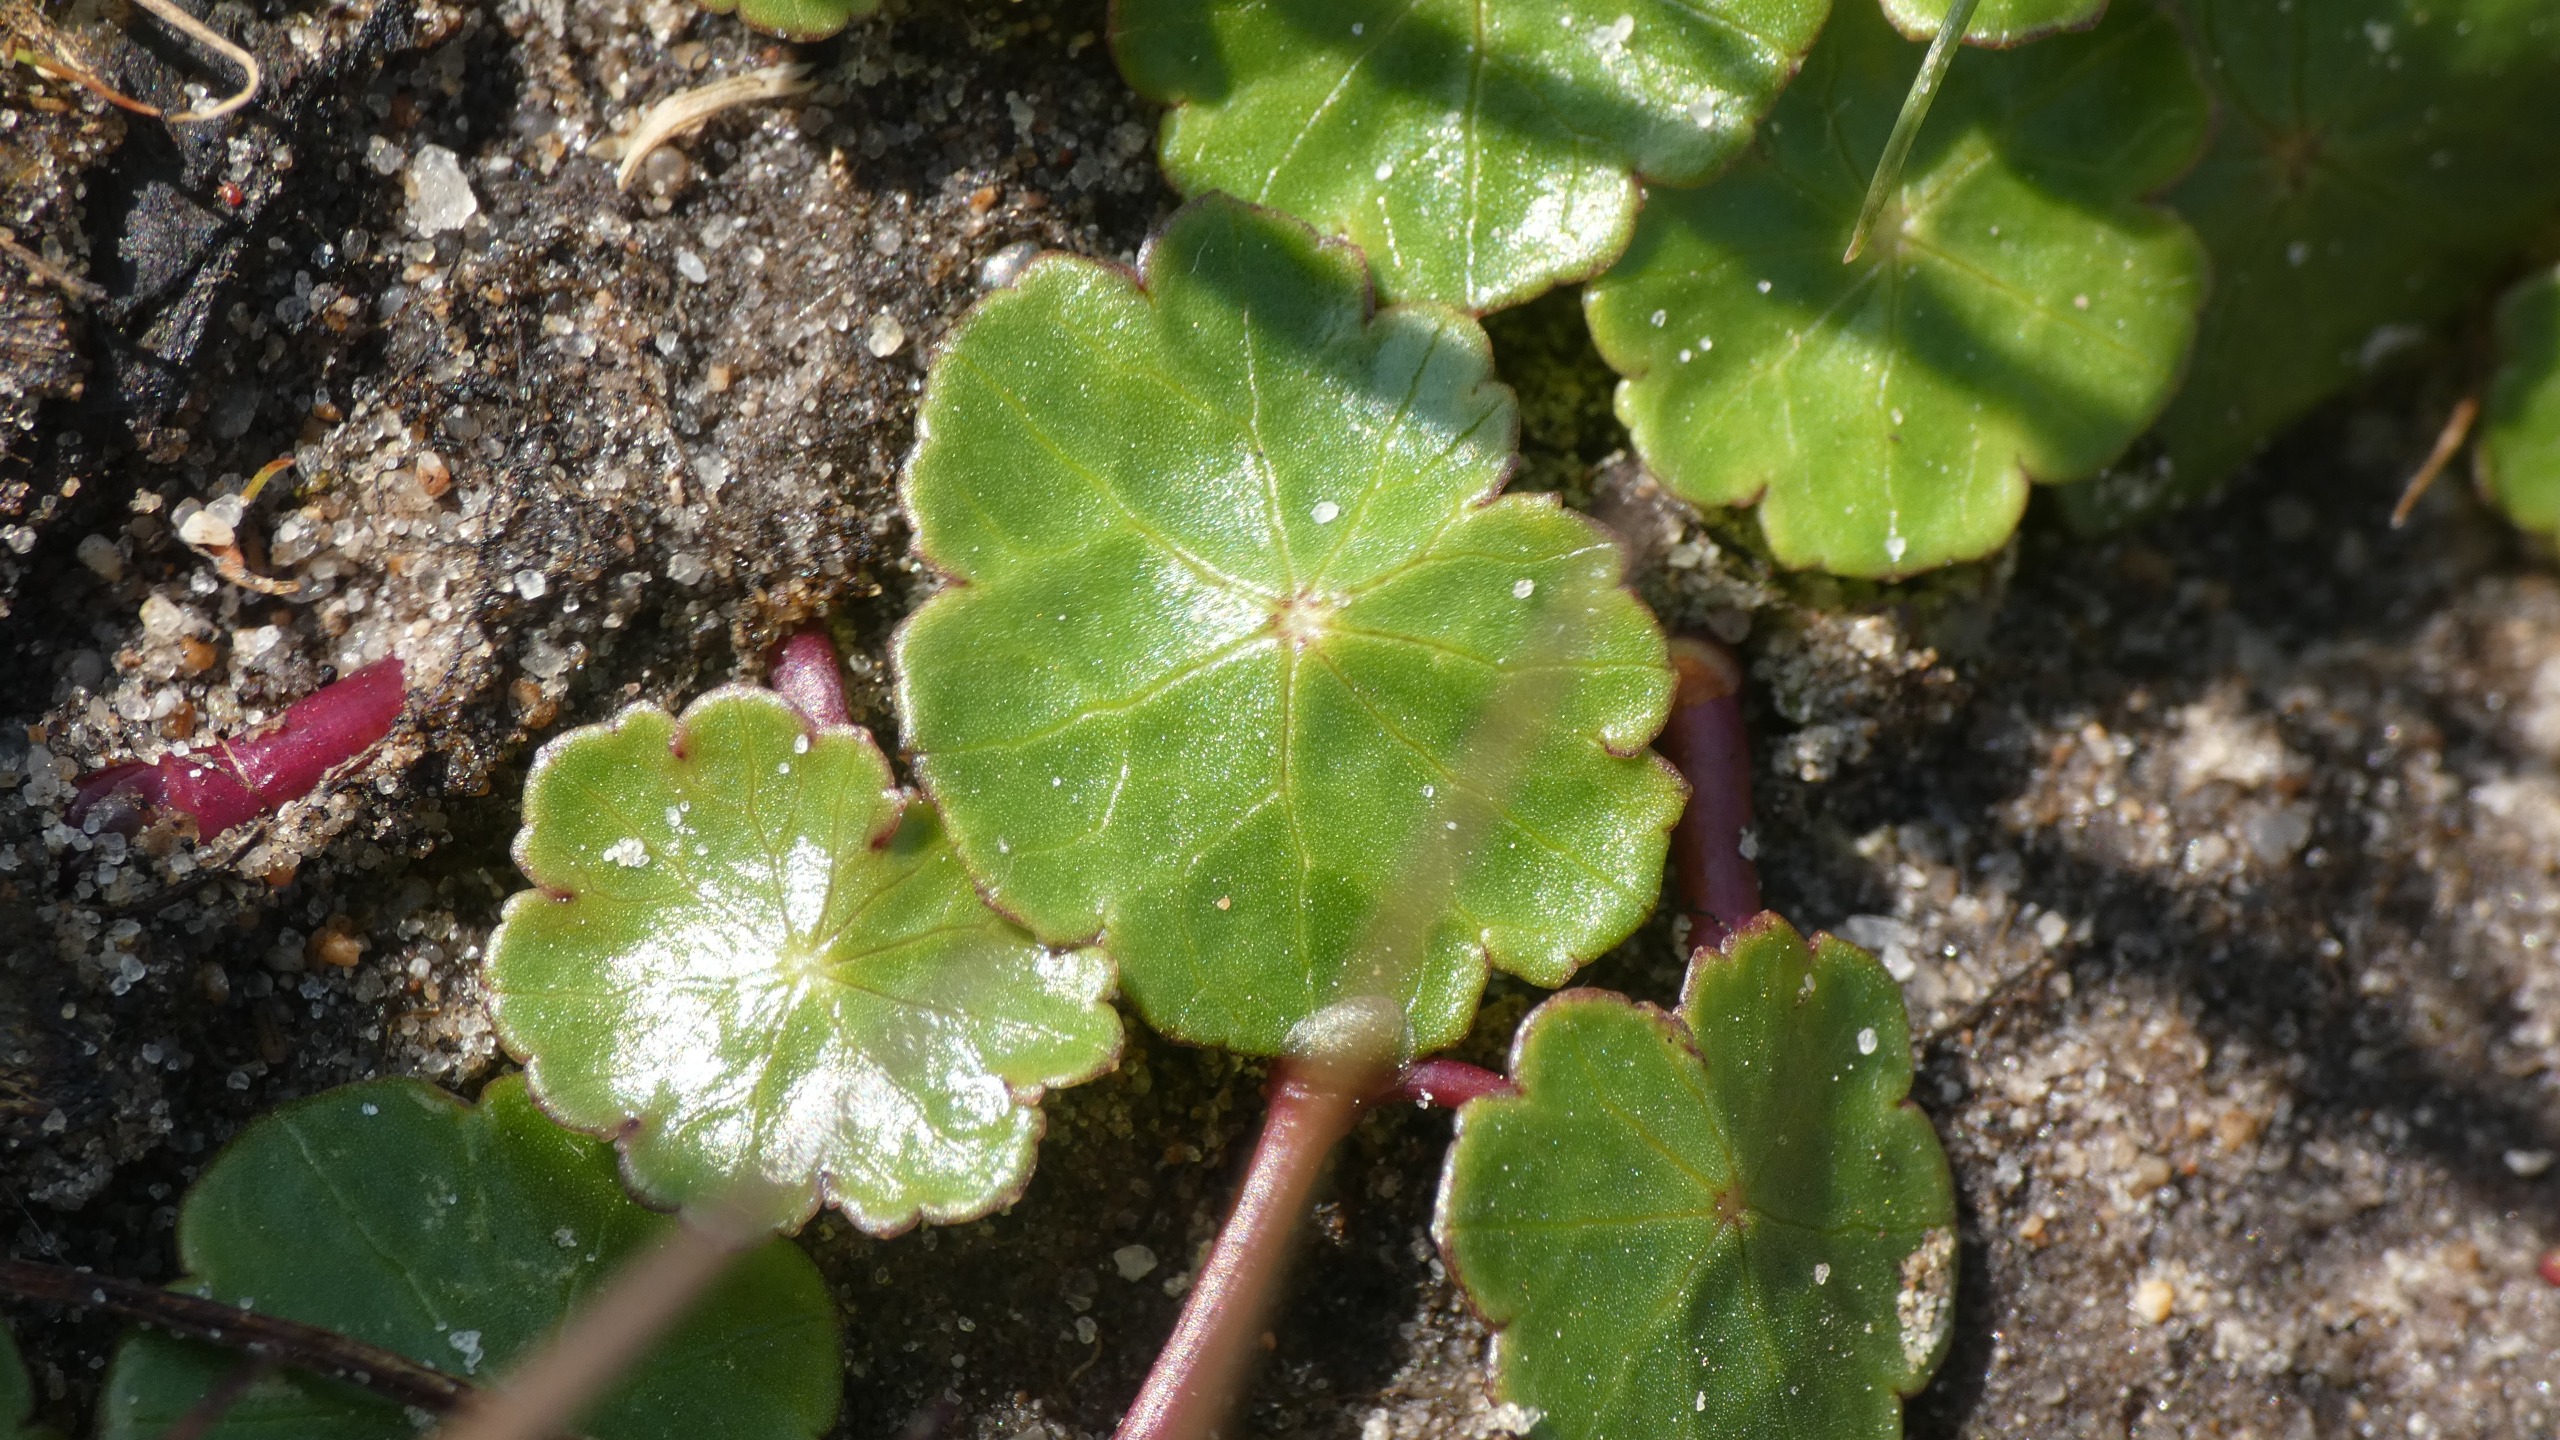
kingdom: Plantae
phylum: Tracheophyta
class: Magnoliopsida
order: Apiales
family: Araliaceae
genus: Hydrocotyle
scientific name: Hydrocotyle vulgaris
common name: Vandnavle
